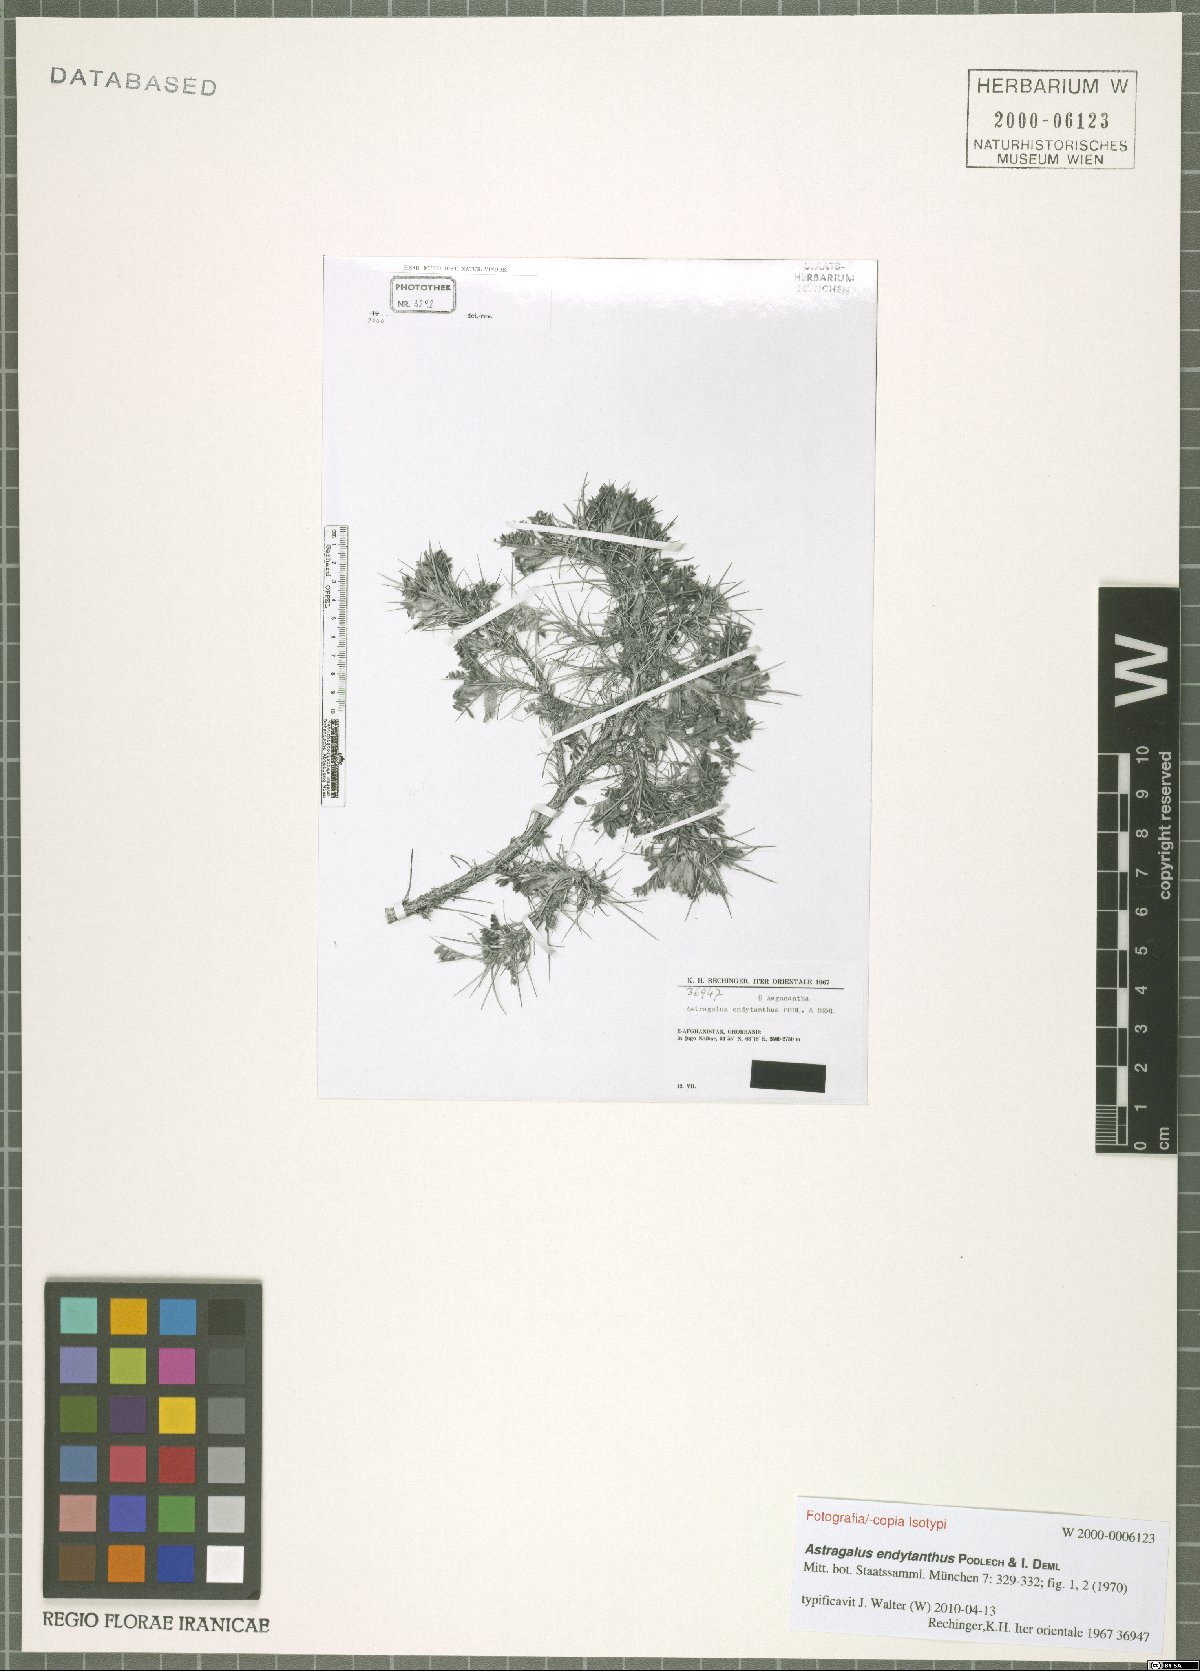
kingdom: Plantae
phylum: Tracheophyta
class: Magnoliopsida
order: Fabales
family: Fabaceae
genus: Astragalus
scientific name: Astragalus endytanthus
